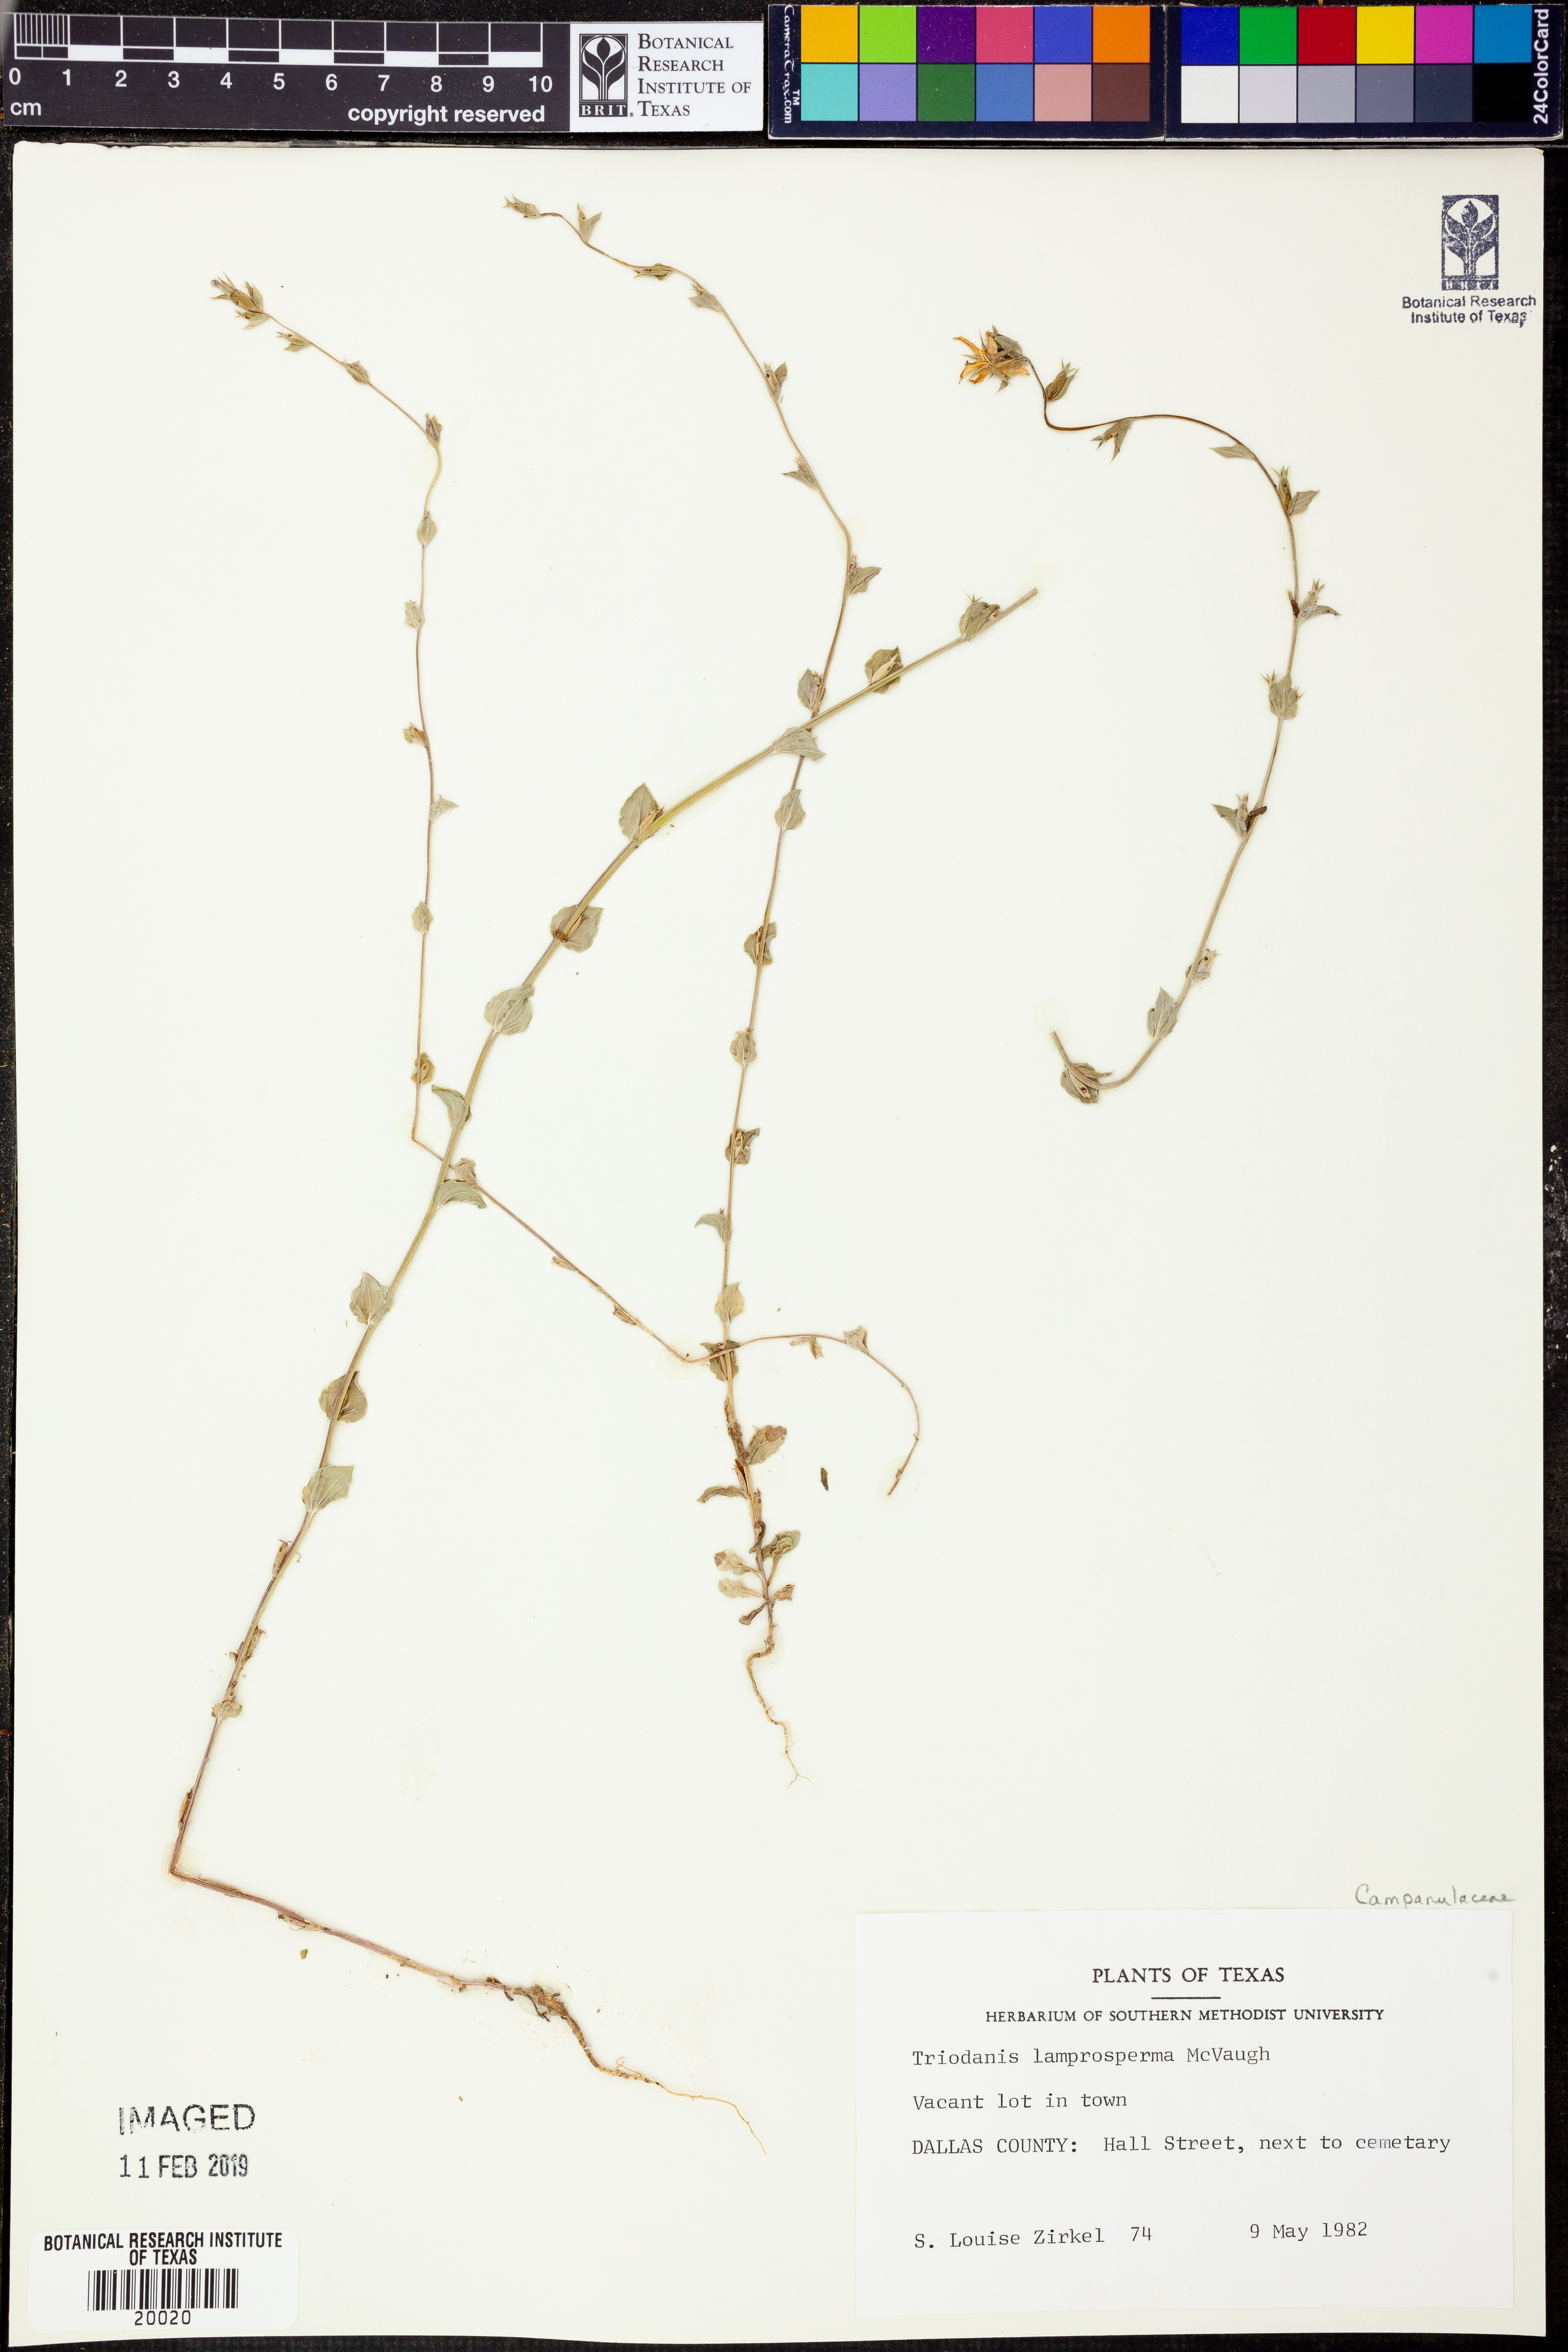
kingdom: Plantae
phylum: Tracheophyta
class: Magnoliopsida
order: Asterales
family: Campanulaceae
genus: Triodanis
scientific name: Triodanis lamprosperma
